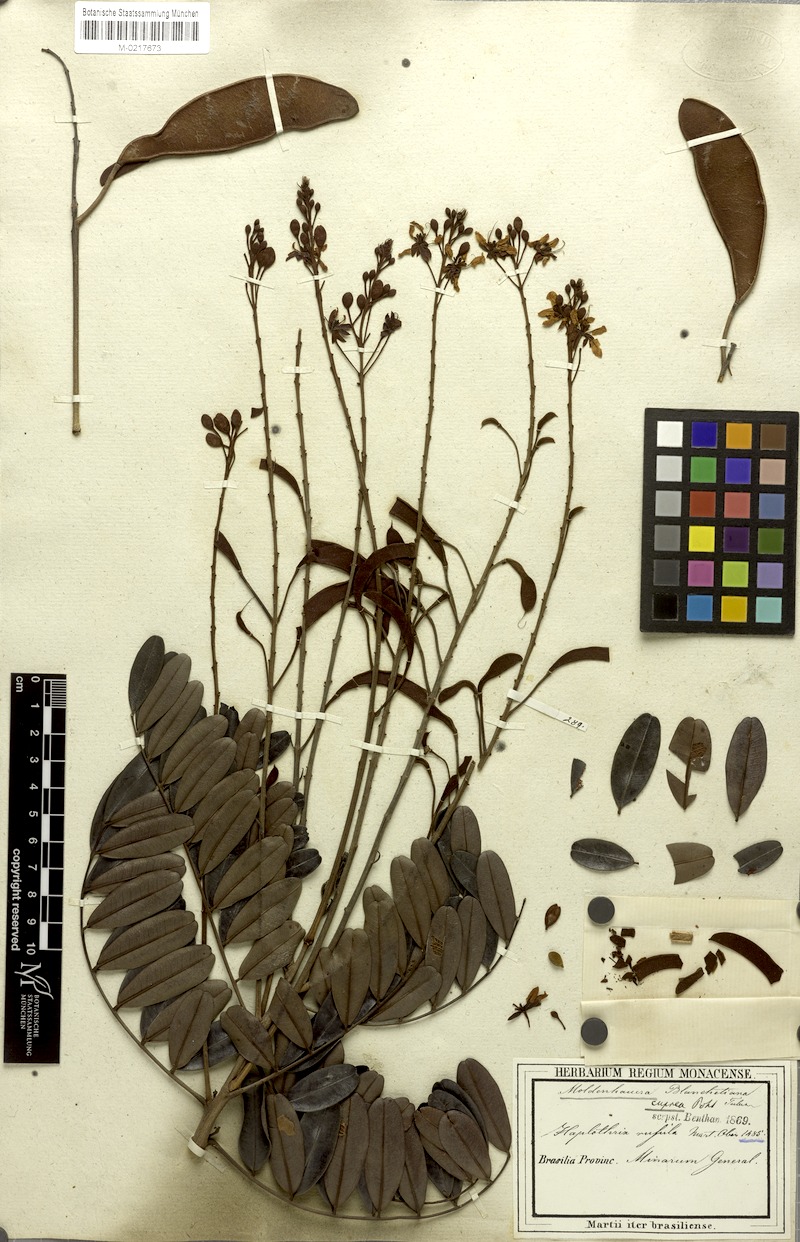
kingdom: Plantae
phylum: Tracheophyta
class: Magnoliopsida
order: Fabales
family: Fabaceae
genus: Moldenhawera
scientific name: Moldenhawera emarginata
